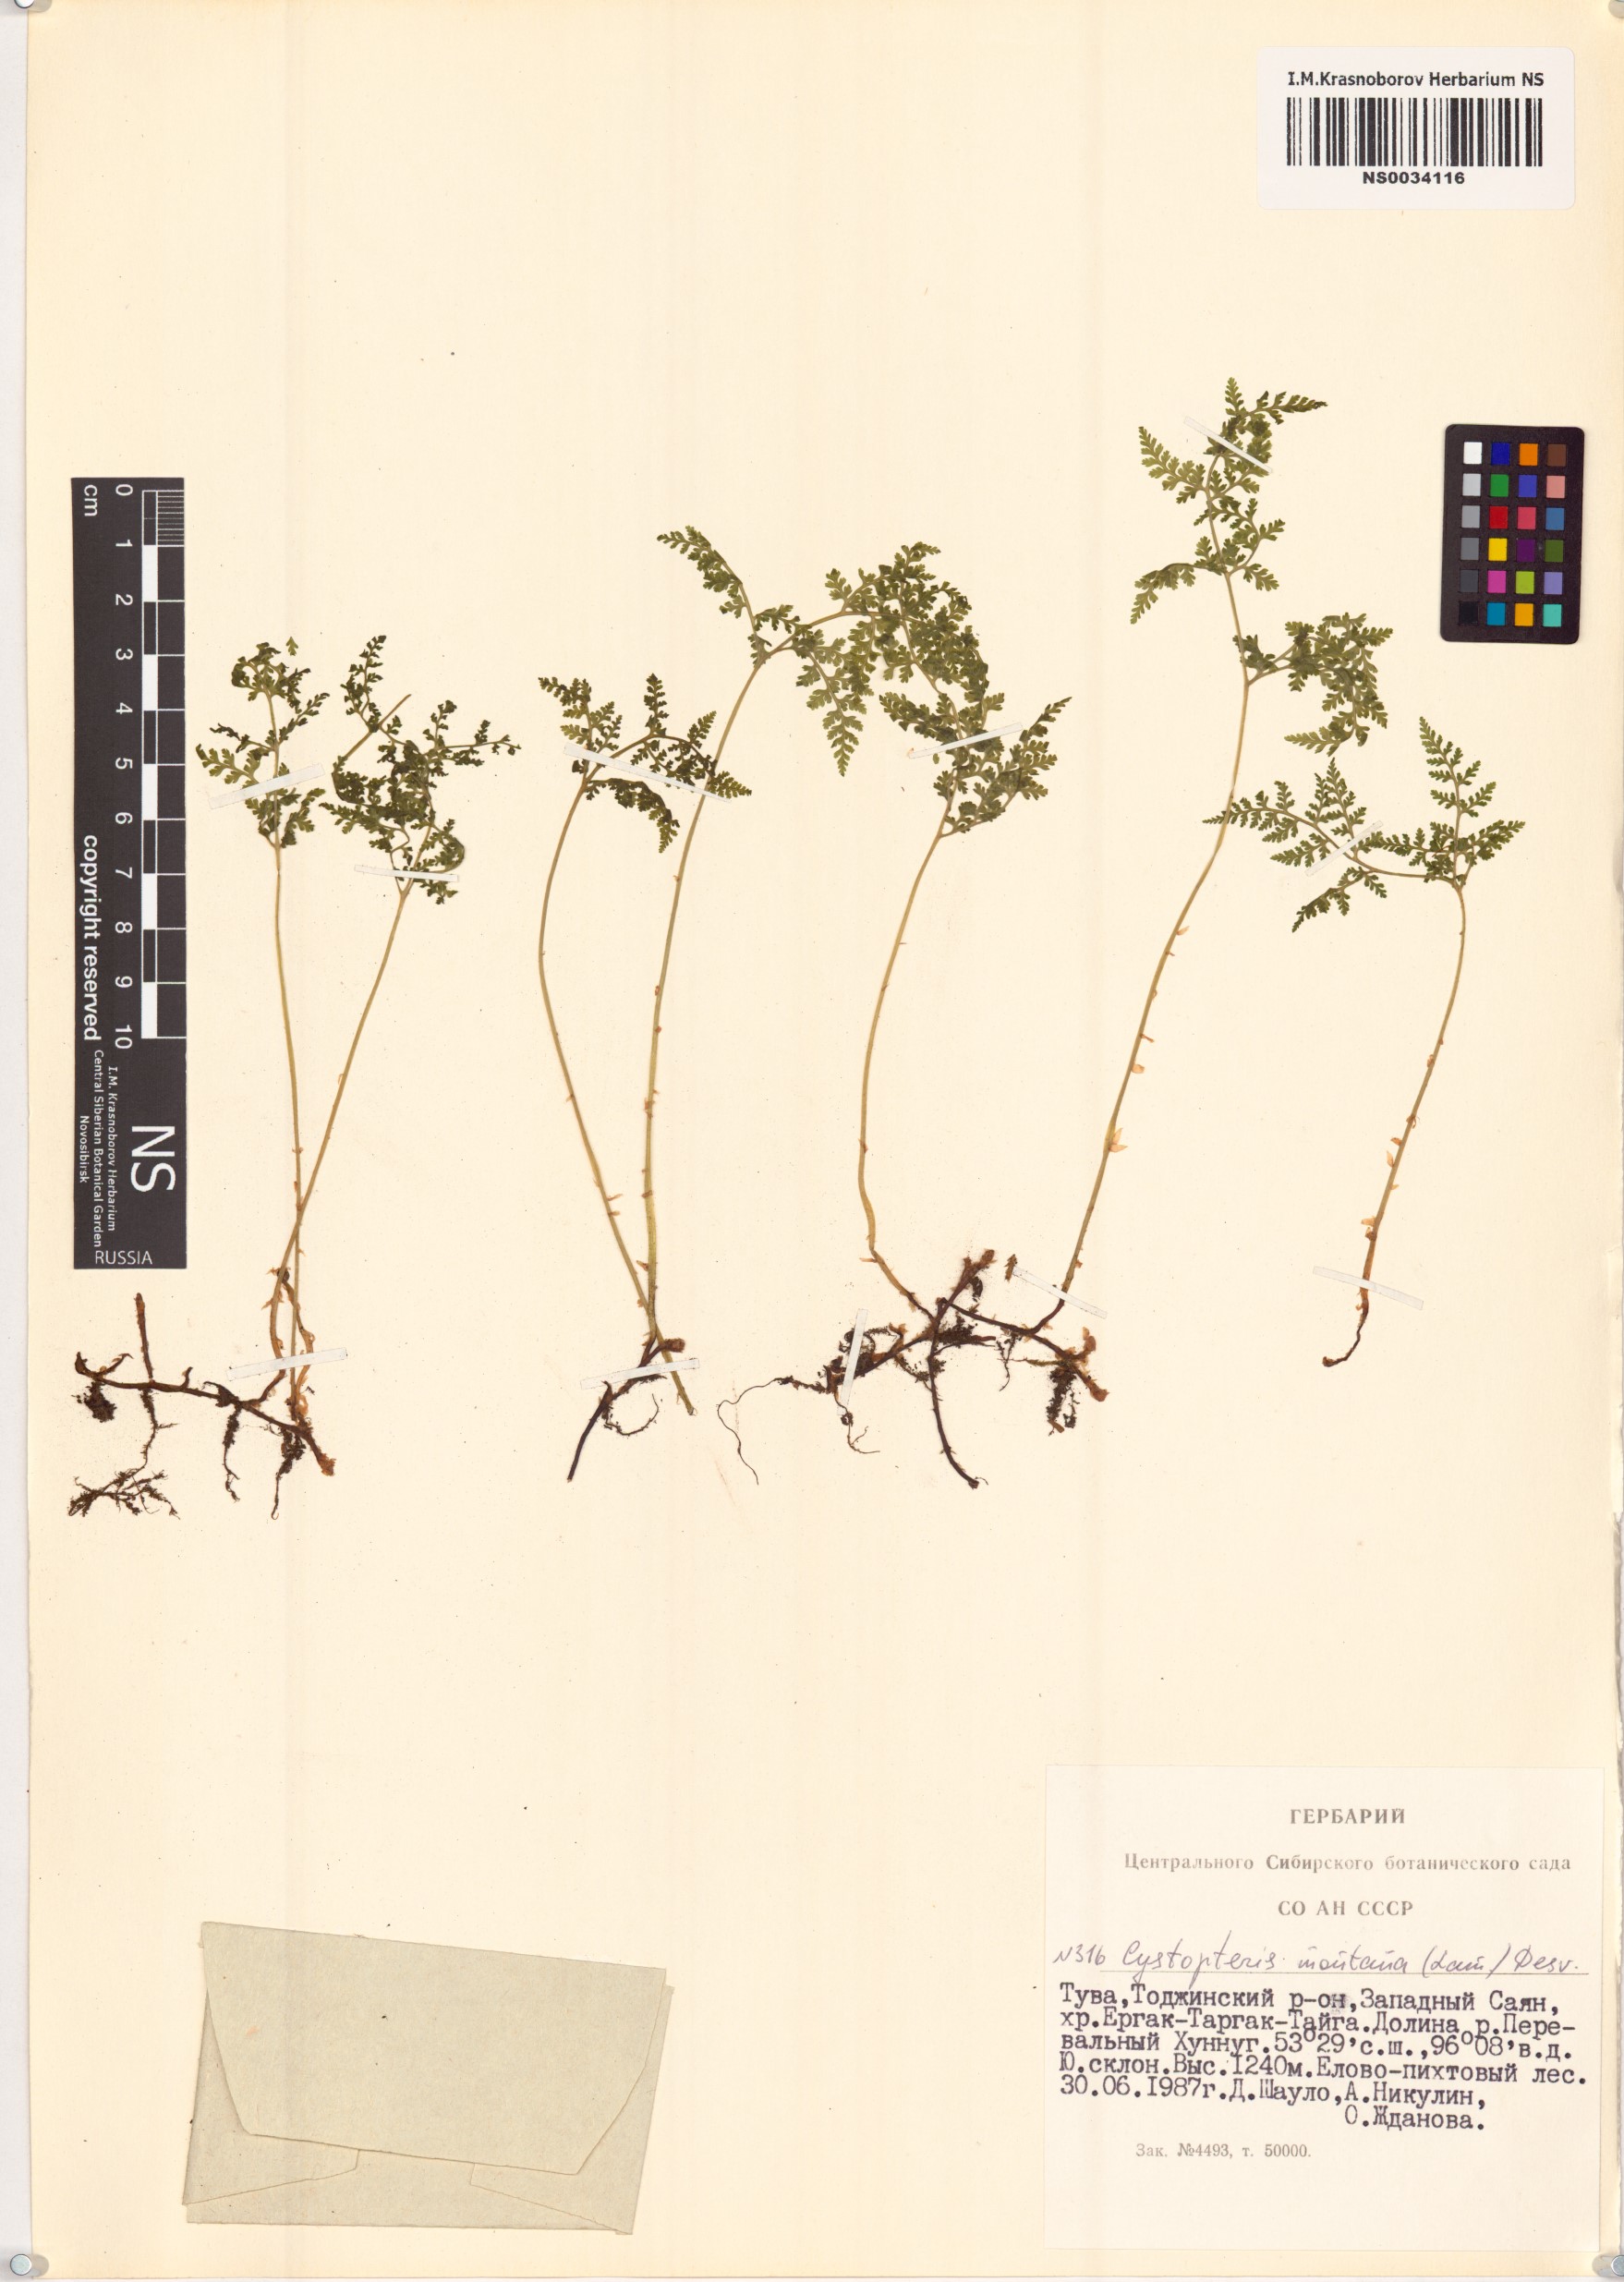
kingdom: Plantae
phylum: Tracheophyta
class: Polypodiopsida
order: Polypodiales
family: Cystopteridaceae
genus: Cystopteris
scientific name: Cystopteris montana
